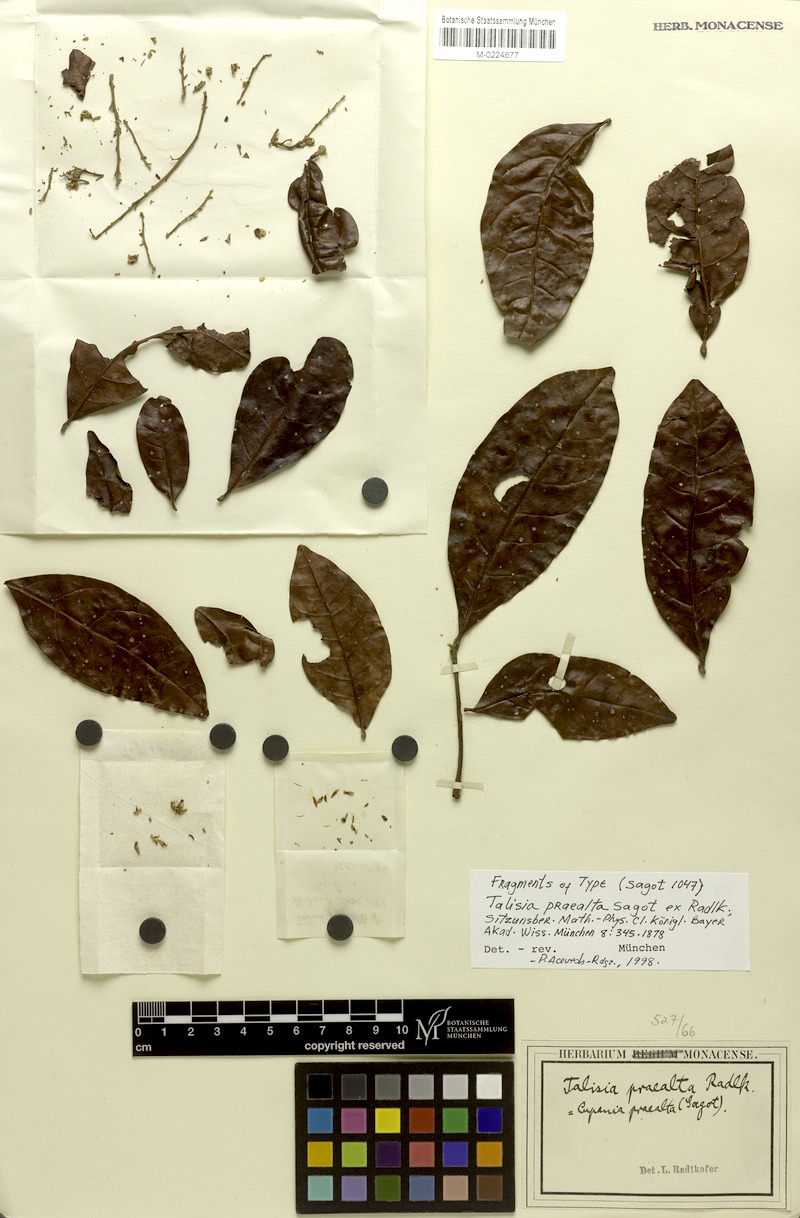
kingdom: Plantae
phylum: Tracheophyta
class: Magnoliopsida
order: Sapindales
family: Sapindaceae
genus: Talisia
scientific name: Talisia praealta
